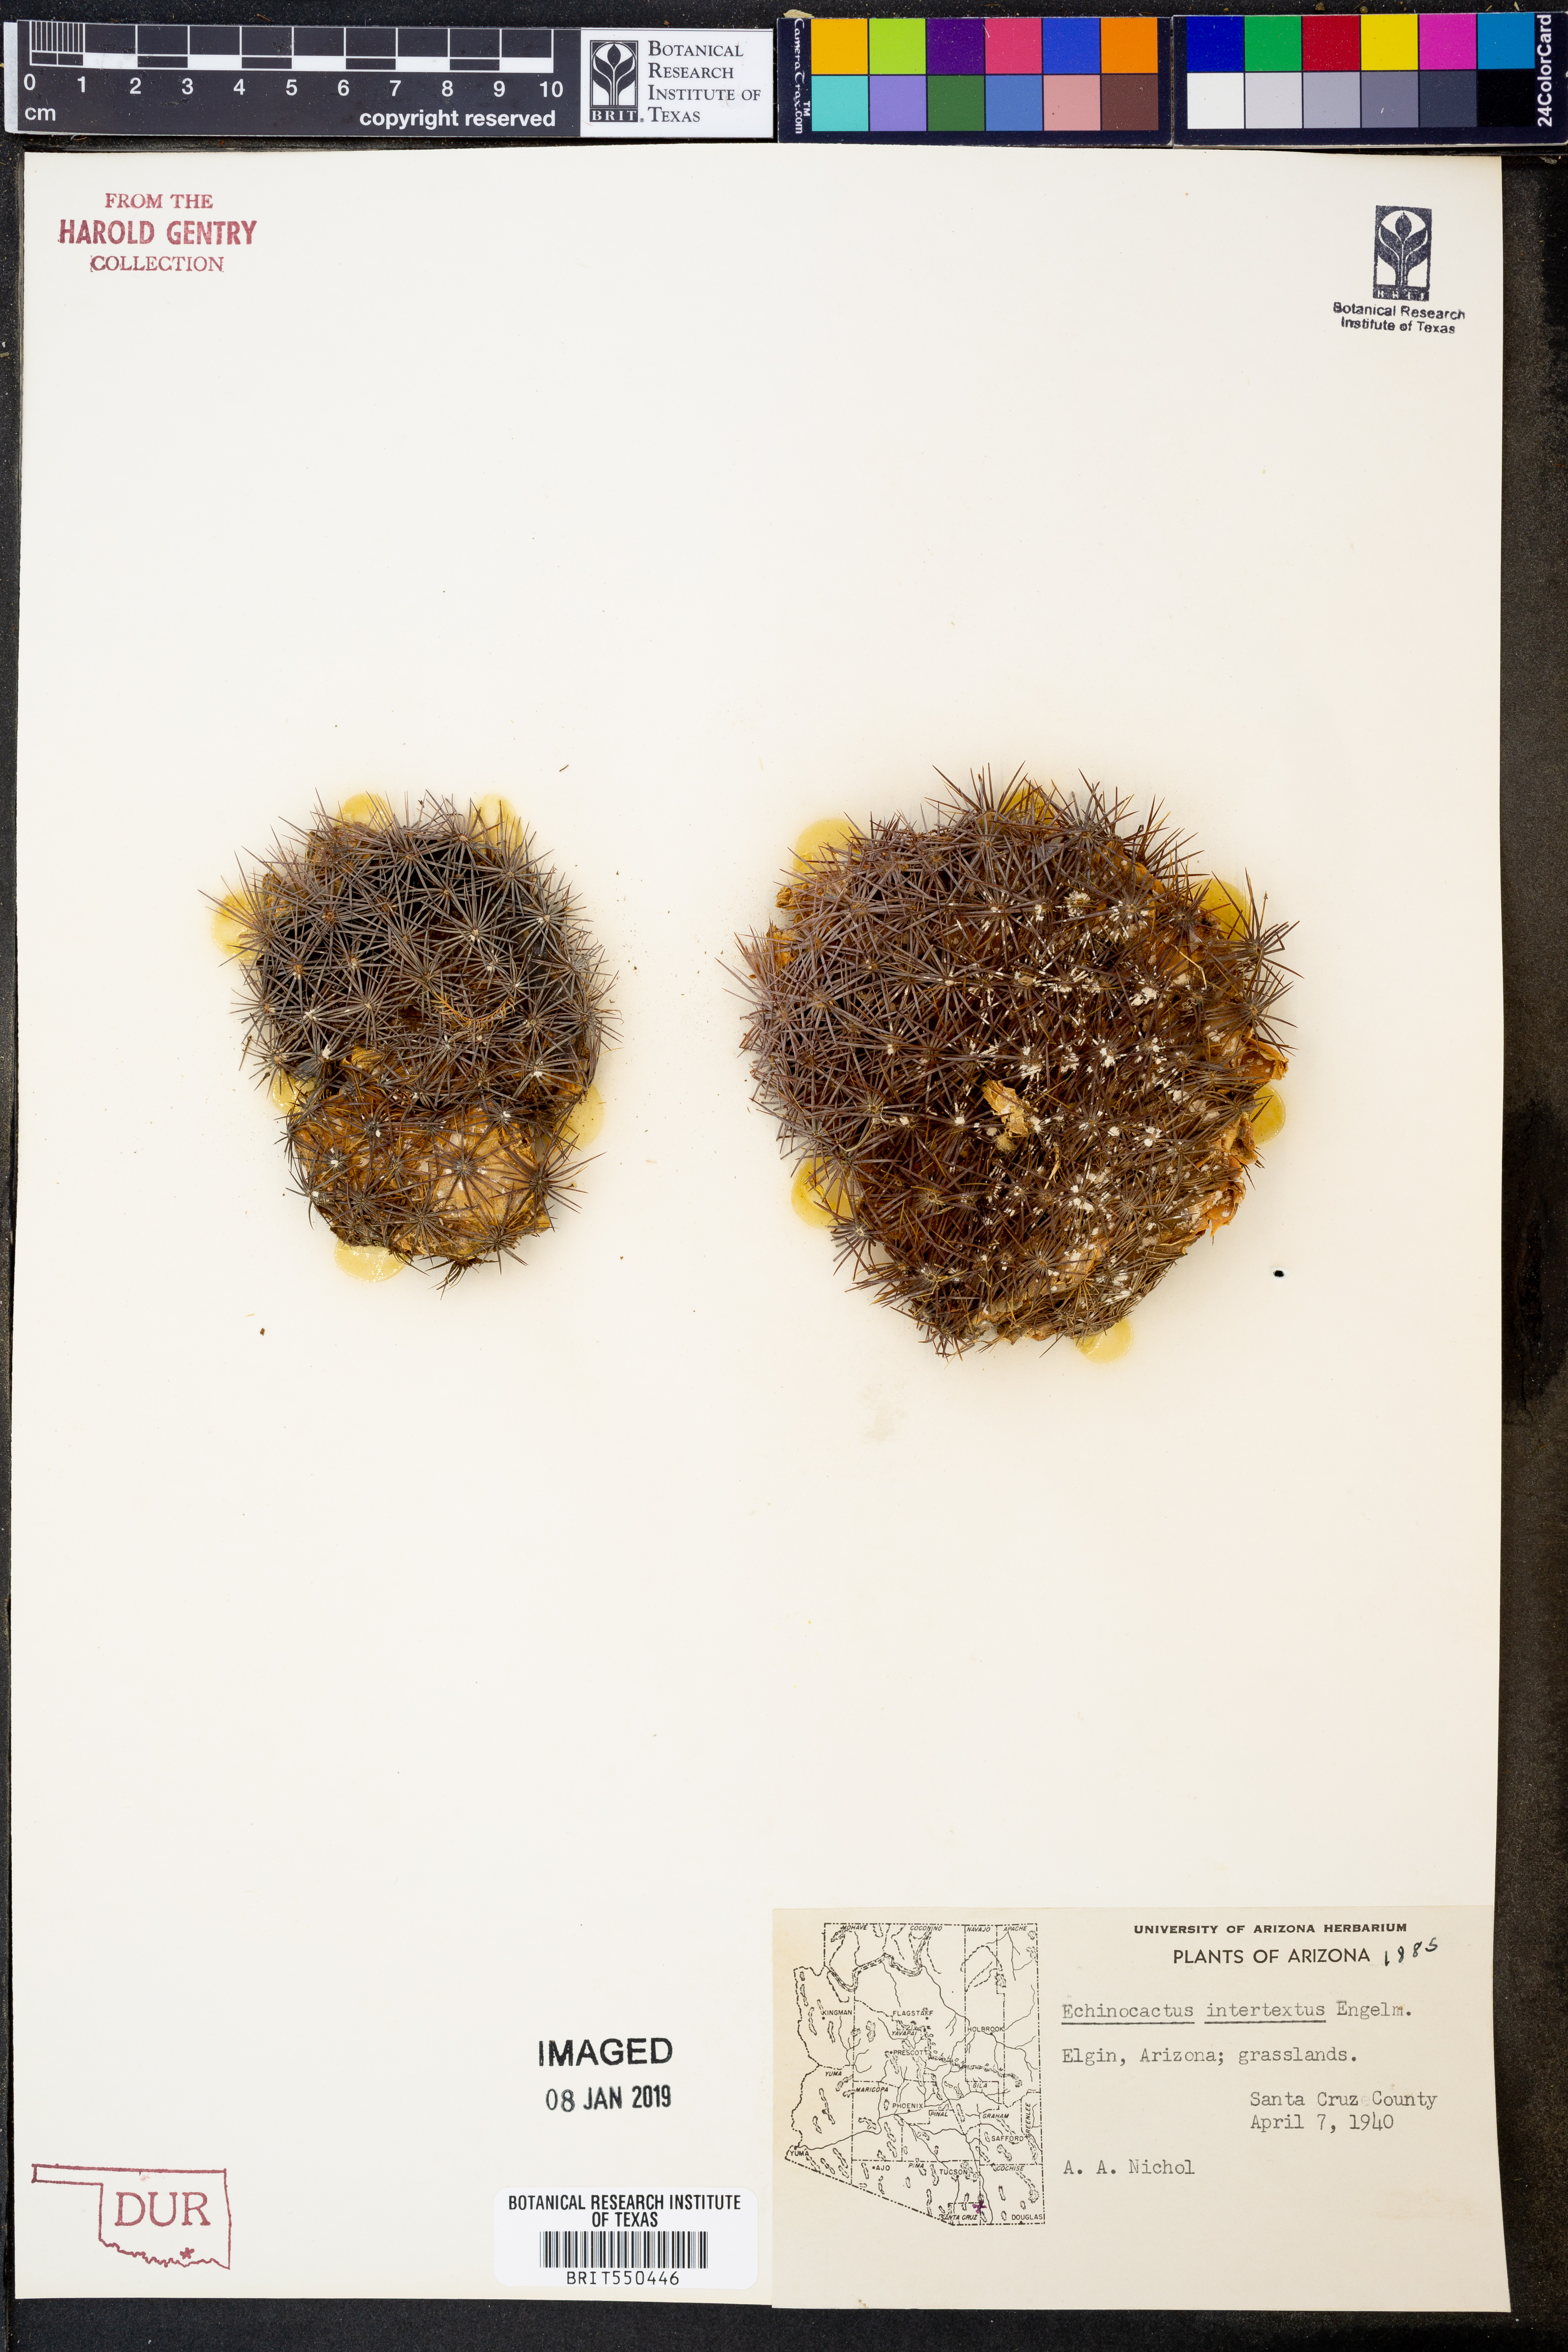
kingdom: Plantae
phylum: Tracheophyta
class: Magnoliopsida
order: Caryophyllales
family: Cactaceae
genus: Sclerocactus
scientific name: Sclerocactus intertextus
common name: White fish-hook cactus
